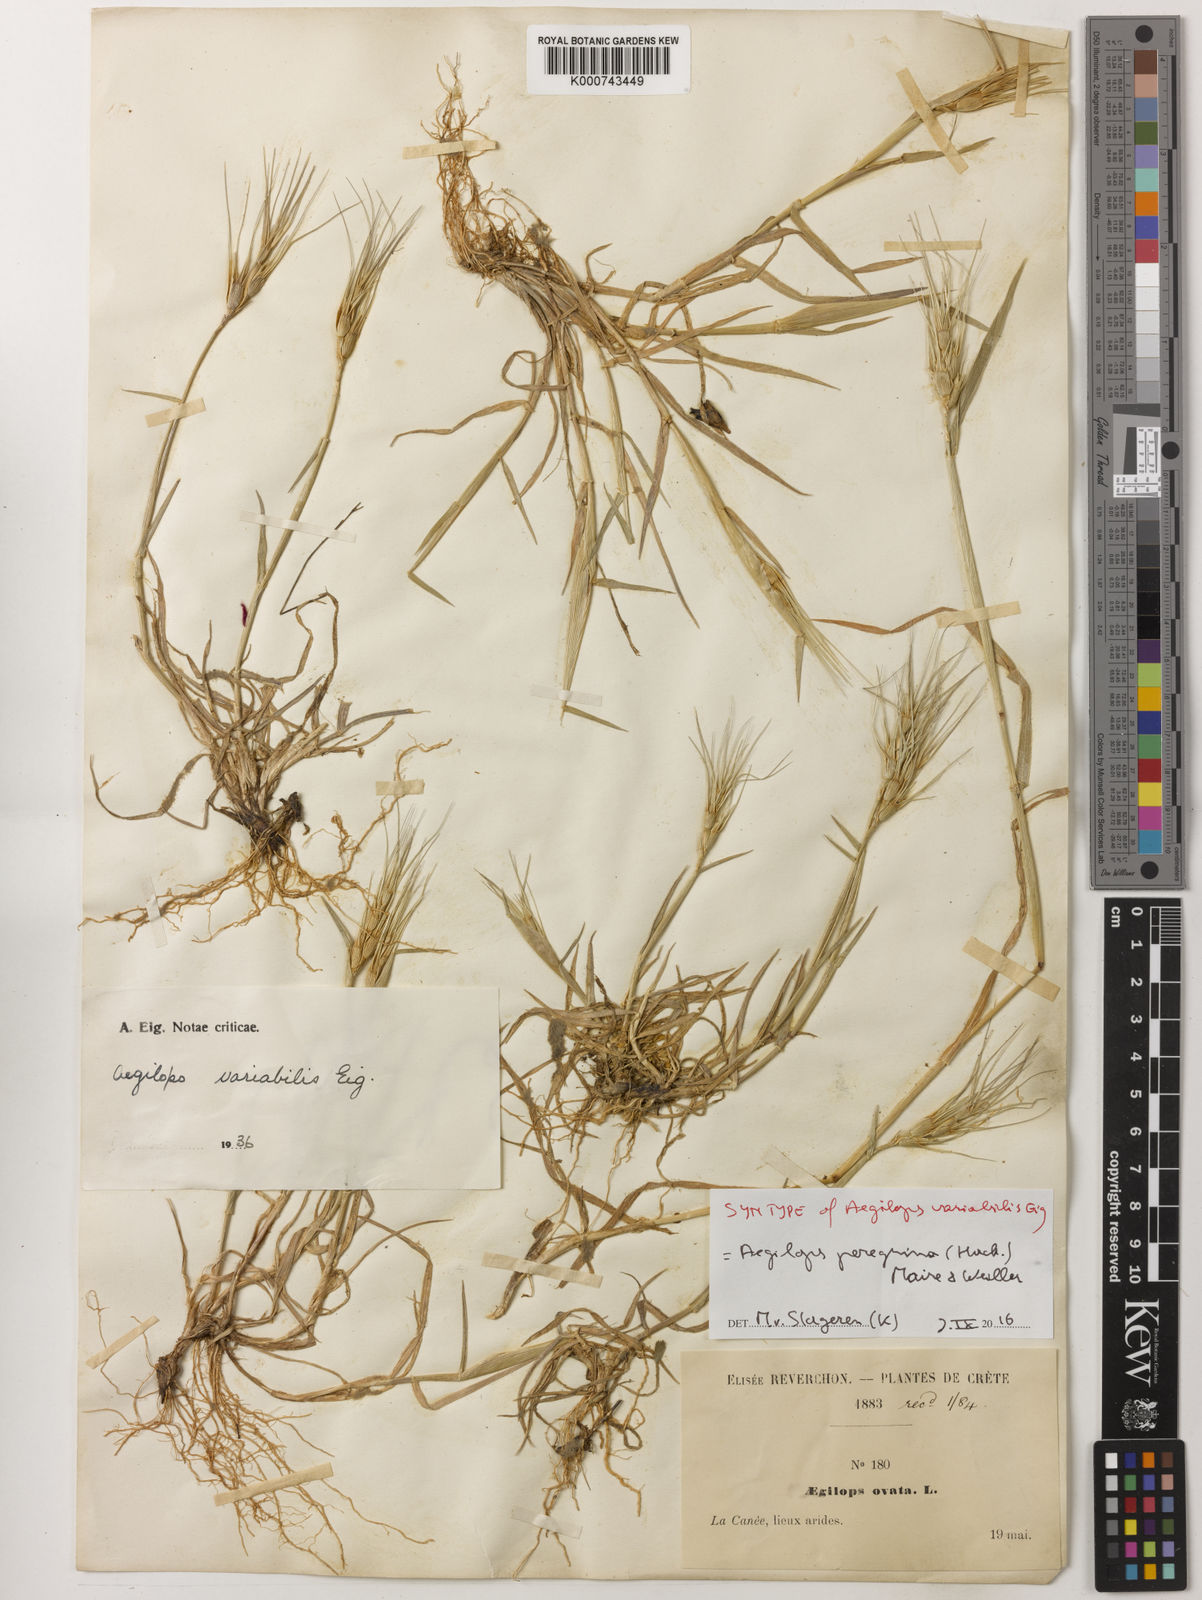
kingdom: Plantae
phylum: Tracheophyta
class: Liliopsida
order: Poales
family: Poaceae
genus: Aegilops
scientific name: Aegilops peregrina
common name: Goatgrass
